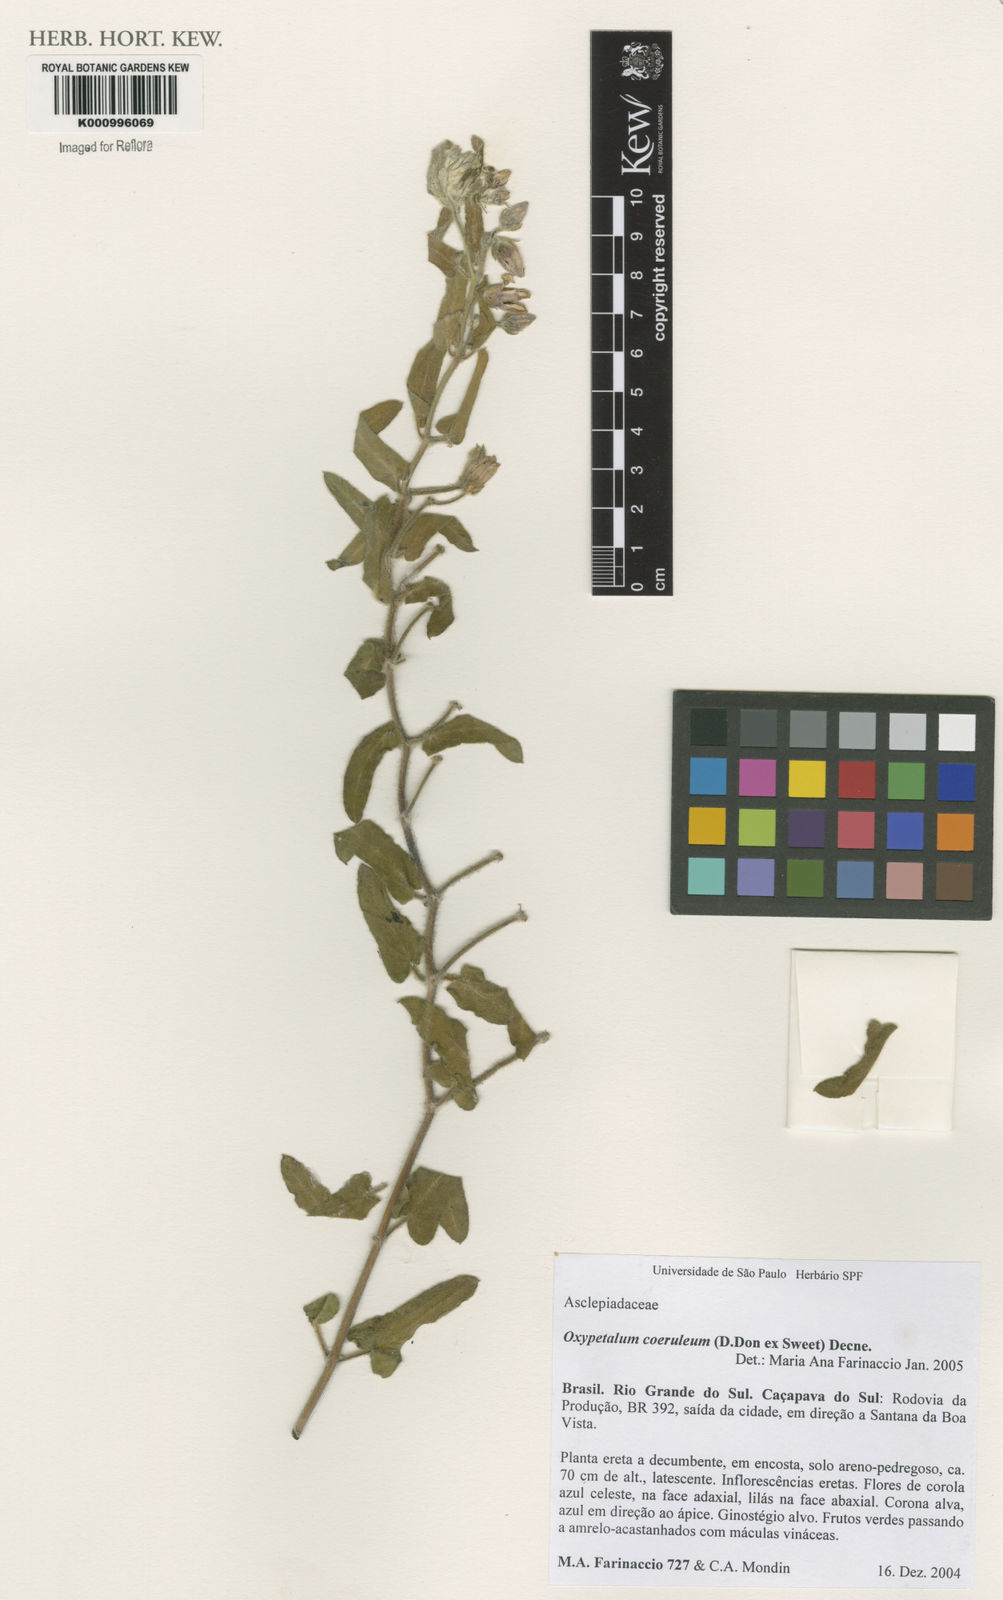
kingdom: Plantae
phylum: Tracheophyta
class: Magnoliopsida
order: Gentianales
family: Apocynaceae
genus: Oxypetalum
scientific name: Oxypetalum coeruleum
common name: Southern star
